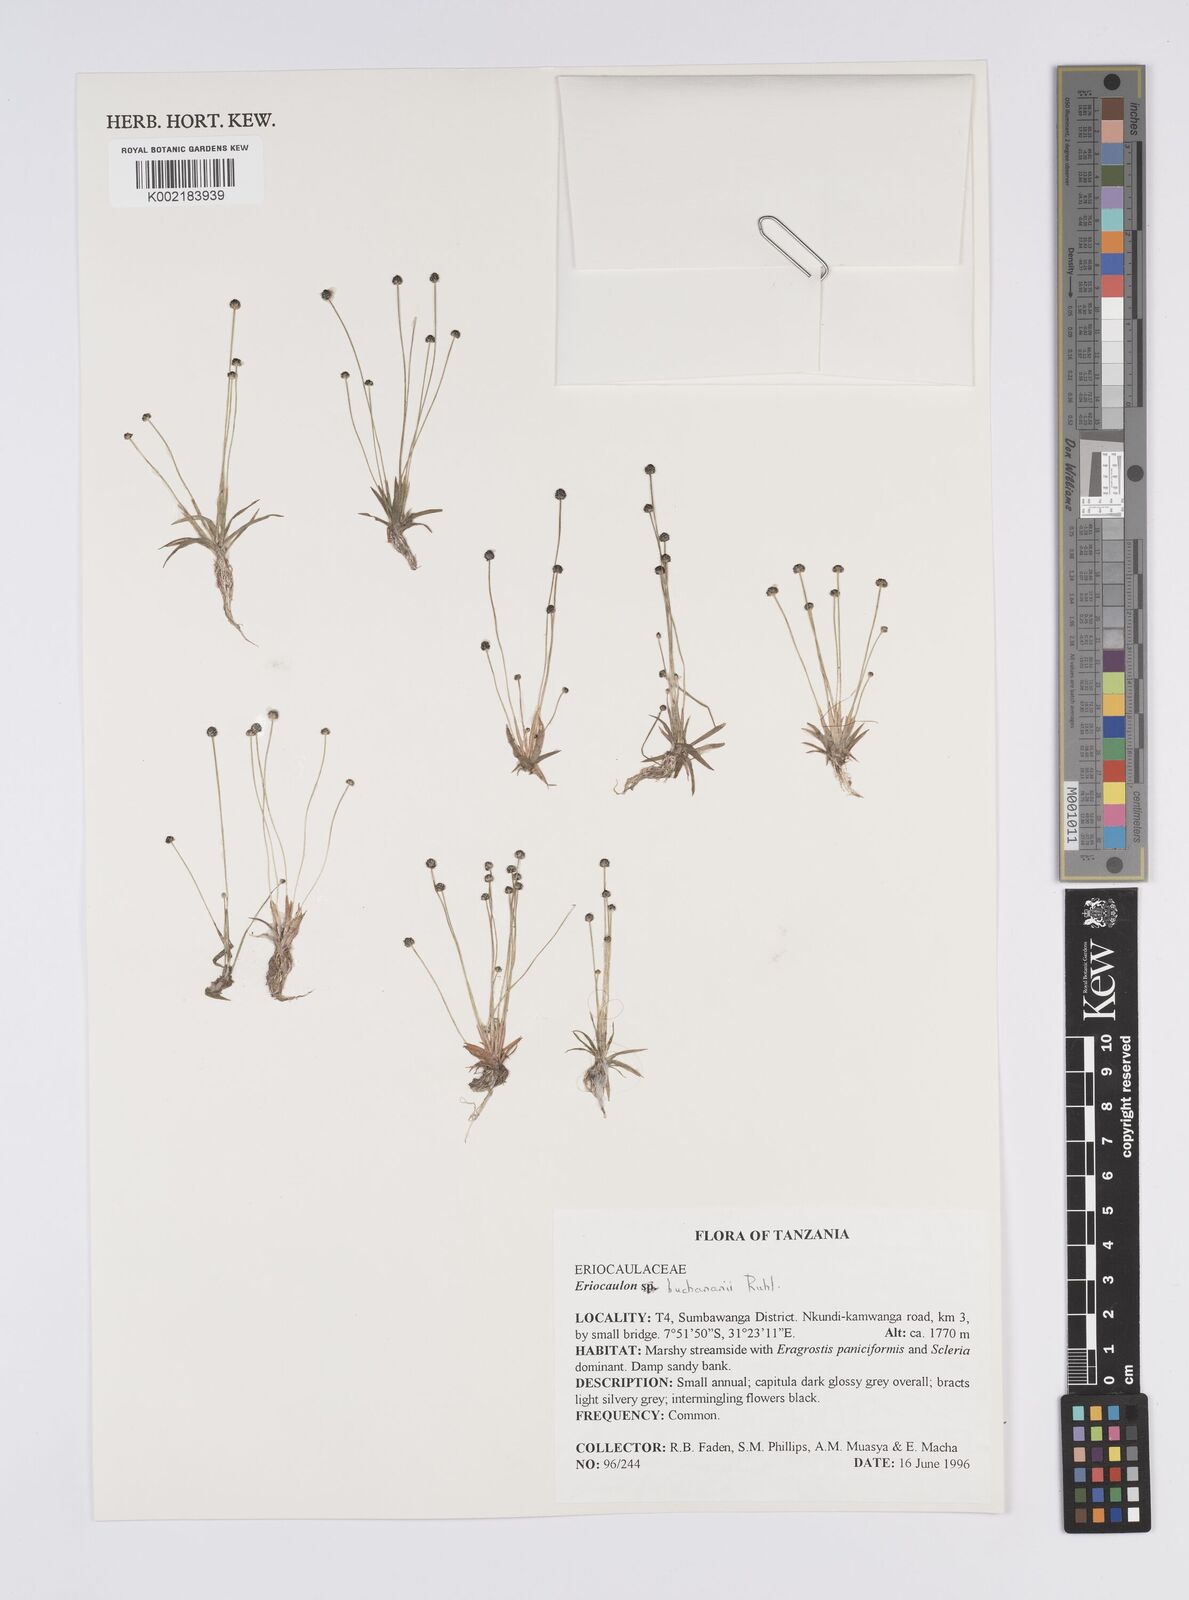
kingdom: Plantae
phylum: Tracheophyta
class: Liliopsida
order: Poales
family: Eriocaulaceae
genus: Eriocaulon
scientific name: Eriocaulon buchananii
